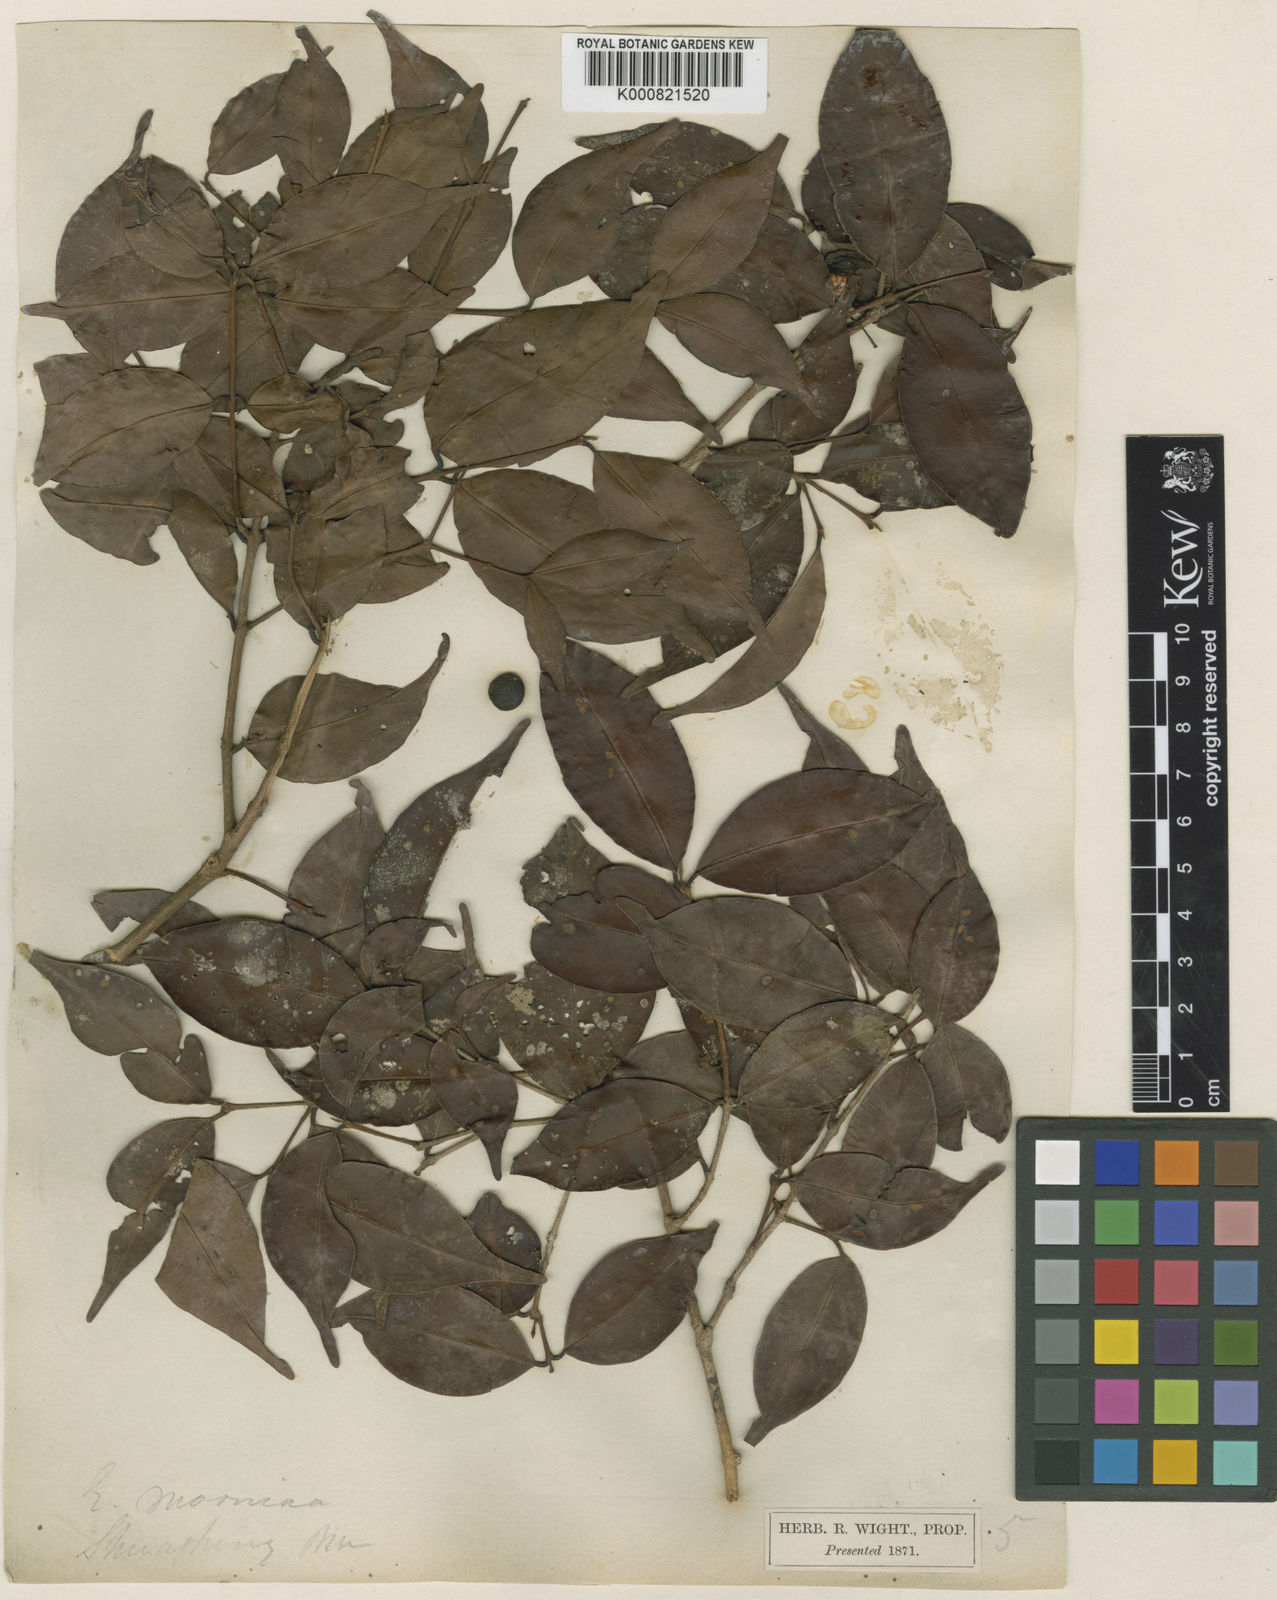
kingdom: Plantae
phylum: Tracheophyta
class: Magnoliopsida
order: Myrtales
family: Myrtaceae
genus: Eugenia
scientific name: Eugenia thwaitesii
